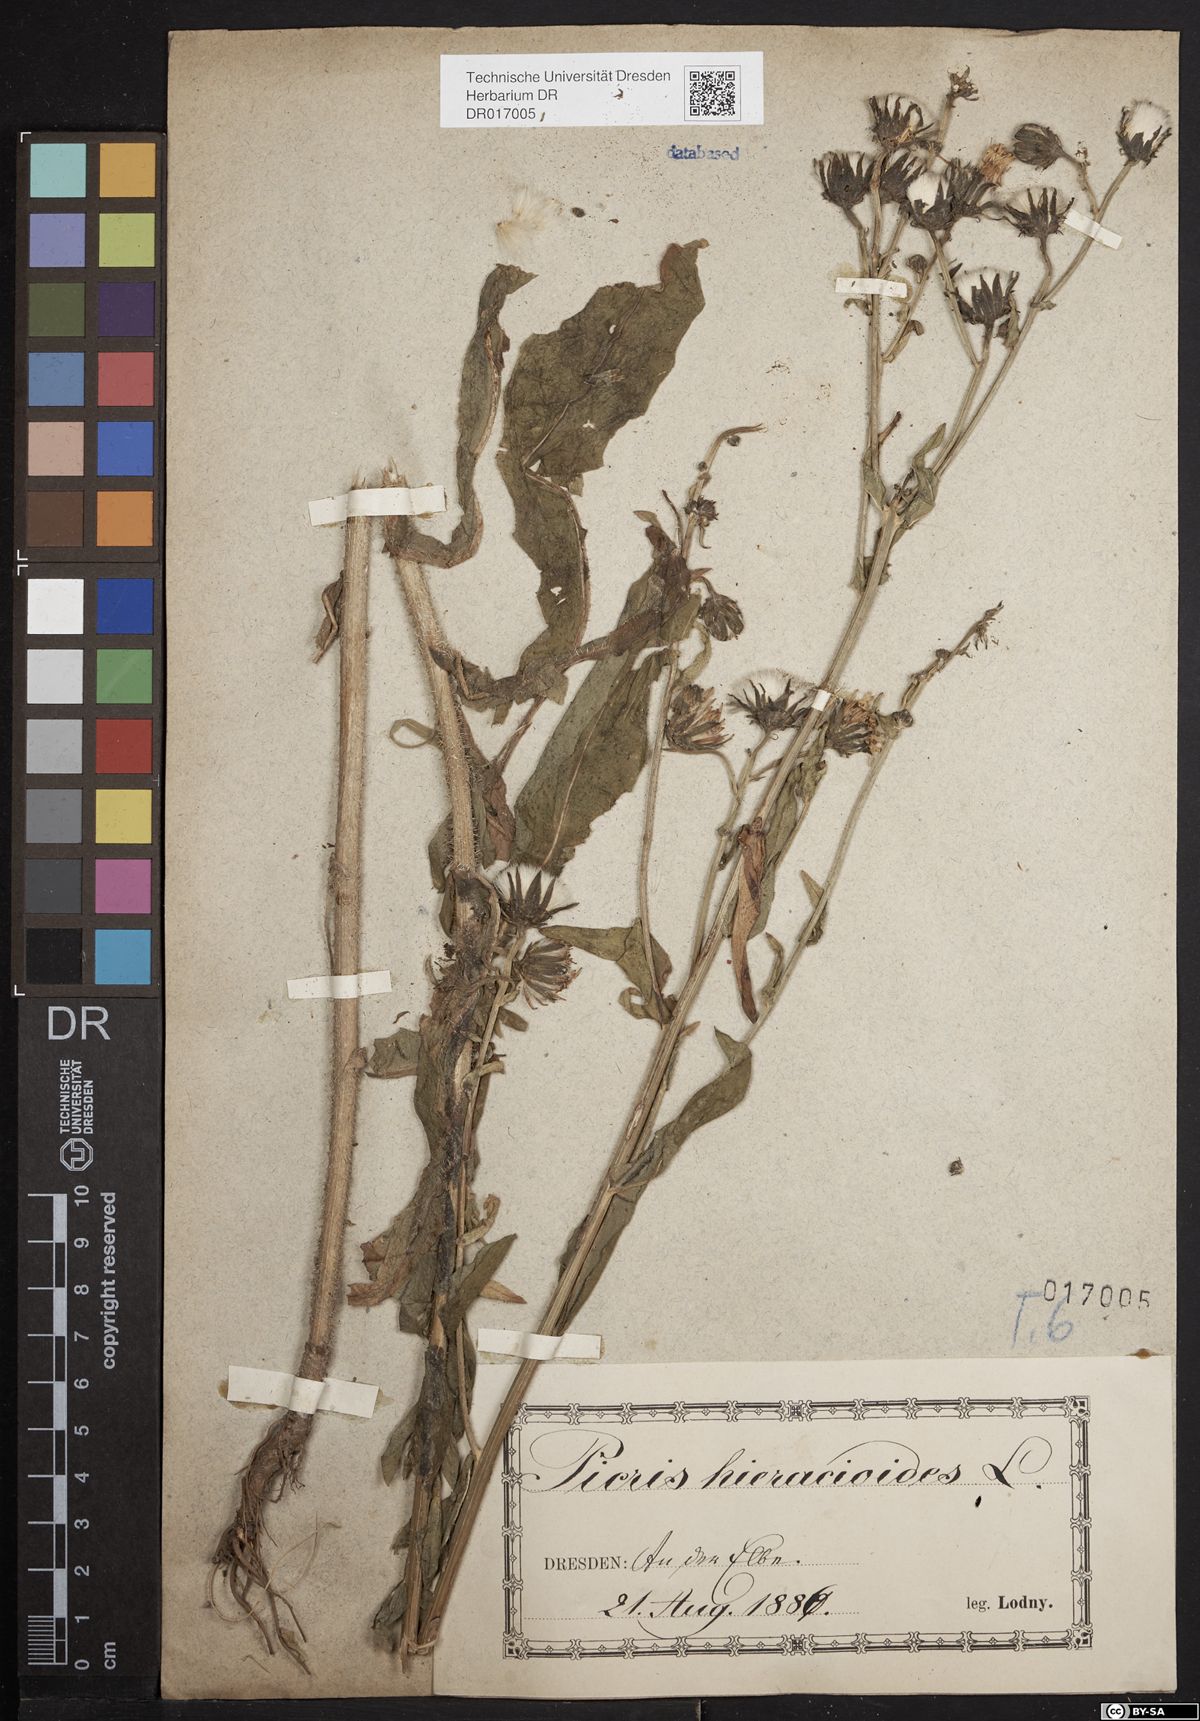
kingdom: Plantae
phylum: Tracheophyta
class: Magnoliopsida
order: Asterales
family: Asteraceae
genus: Picris
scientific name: Picris hieracioides
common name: Hawkweed oxtongue
